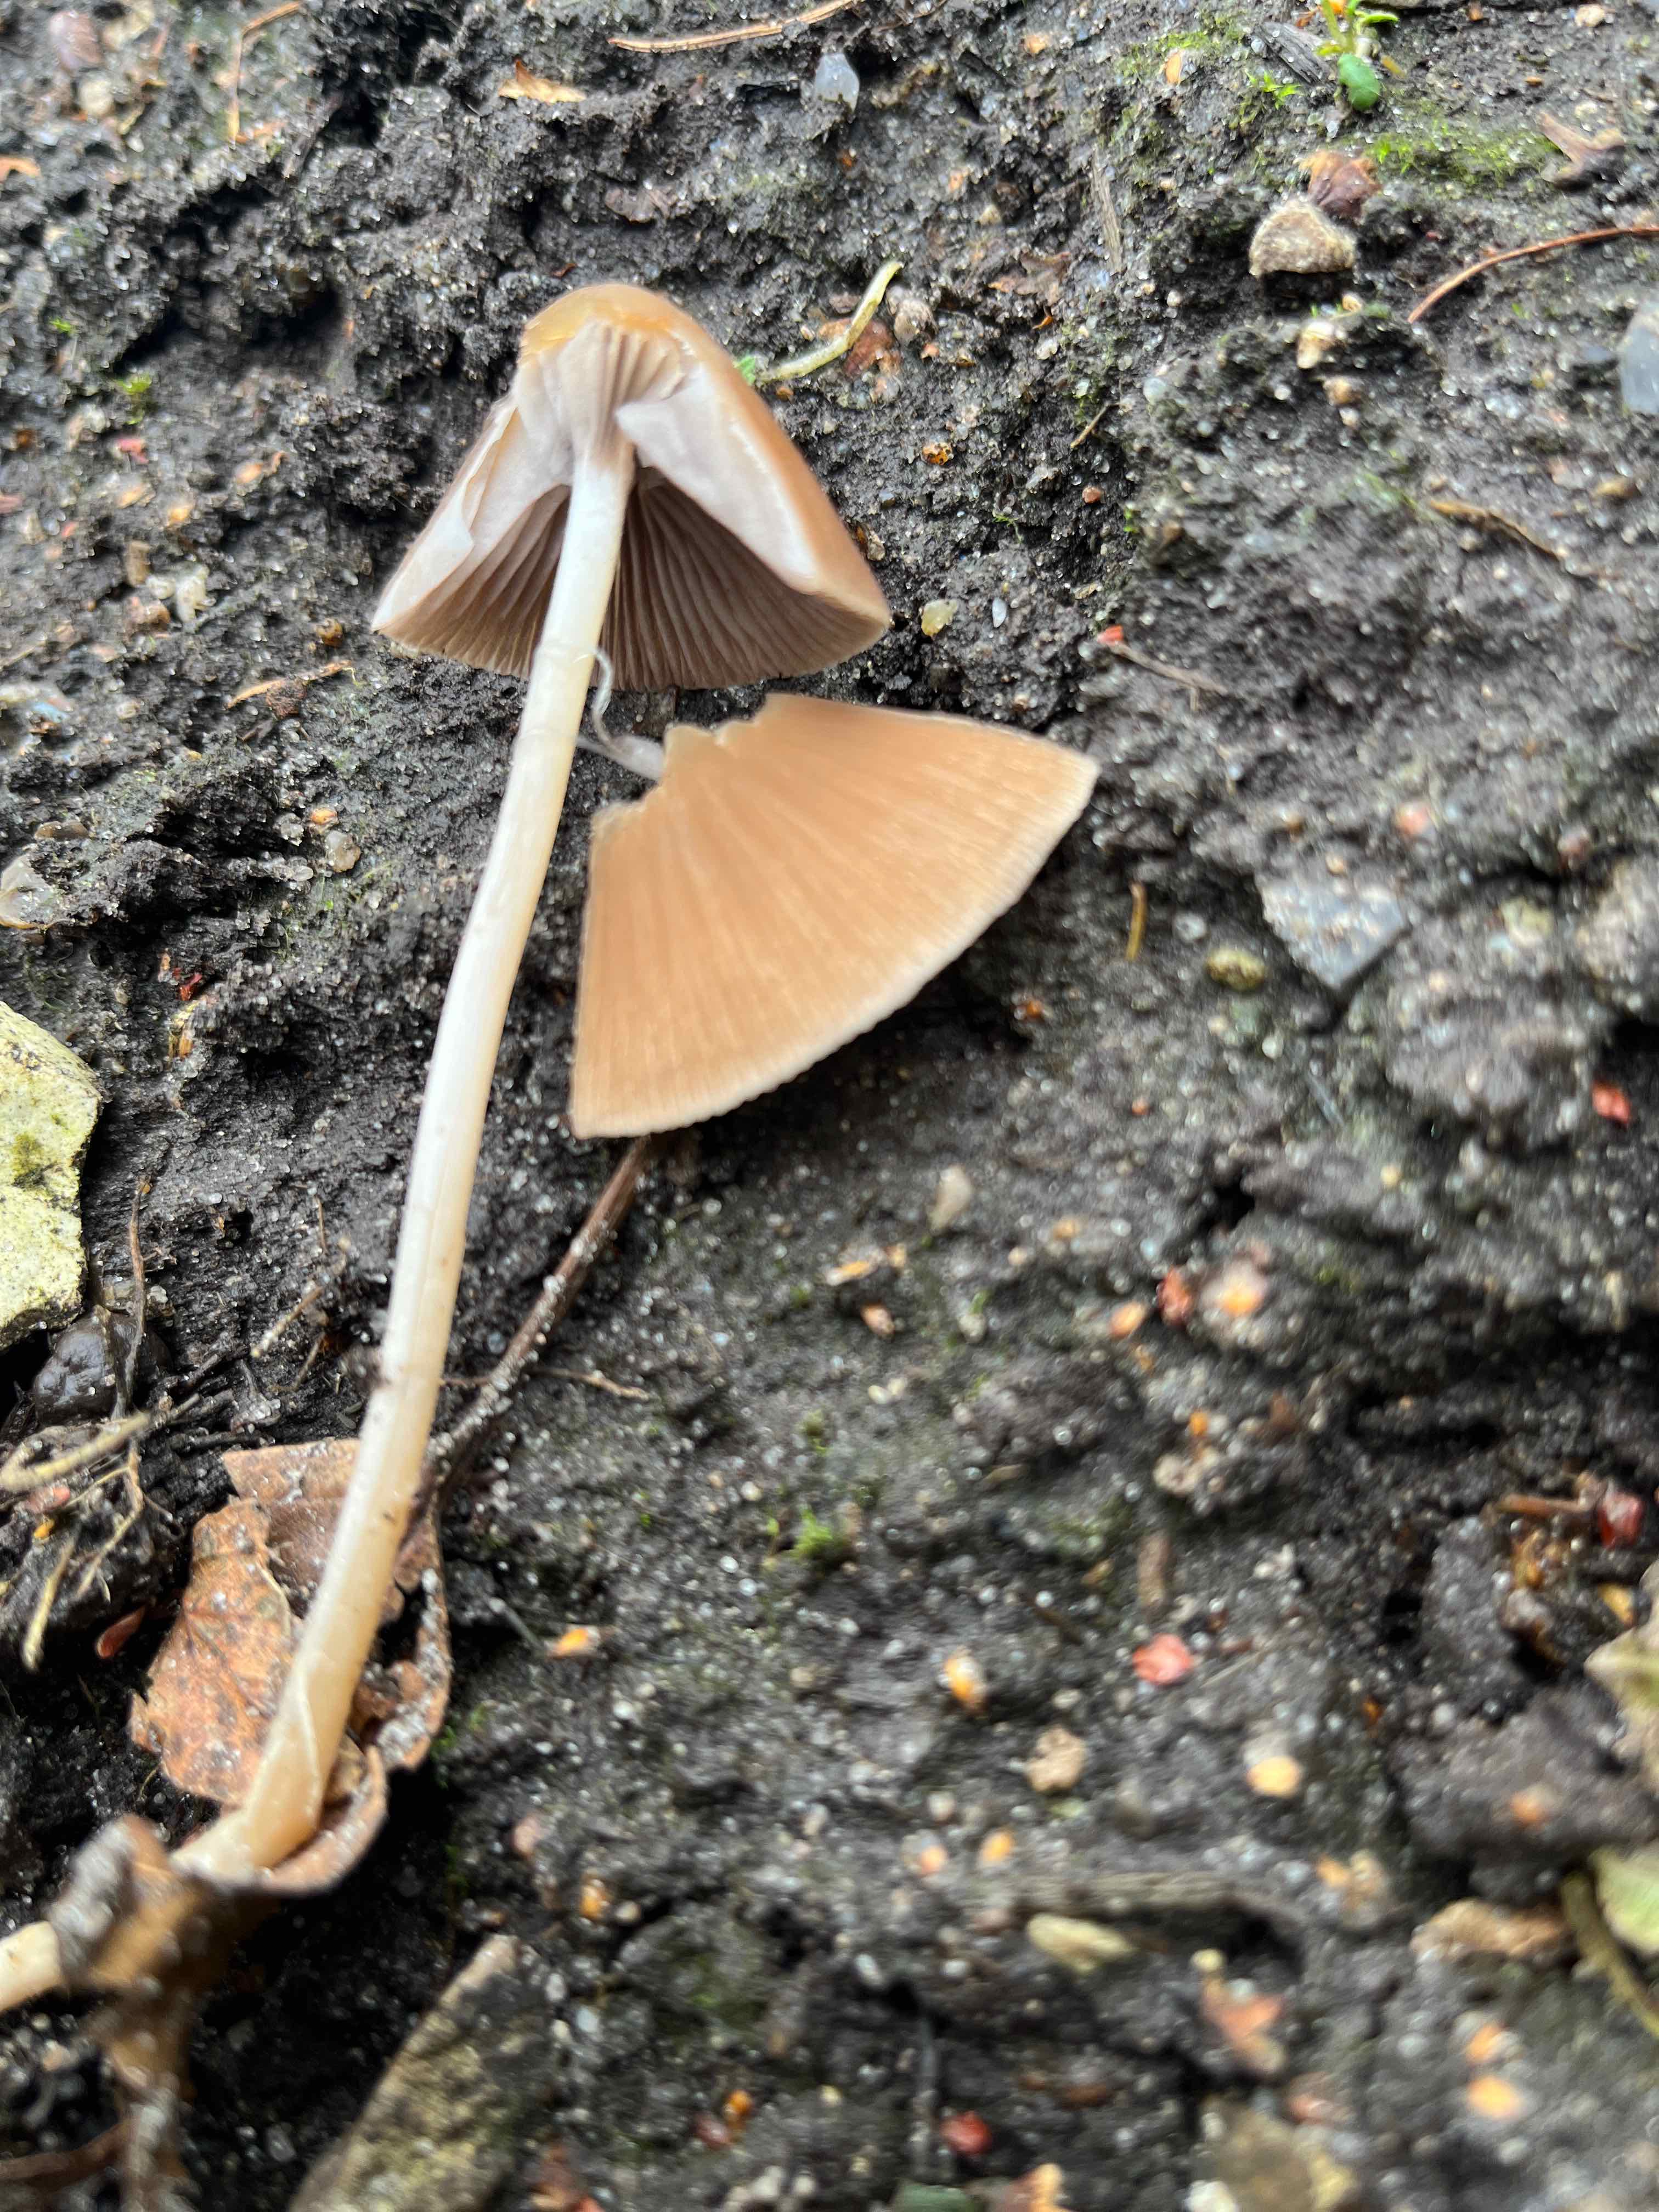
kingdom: Fungi
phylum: Basidiomycota
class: Agaricomycetes
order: Agaricales
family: Psathyrellaceae
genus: Parasola
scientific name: Parasola conopilea
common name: kegle-hjulhat
